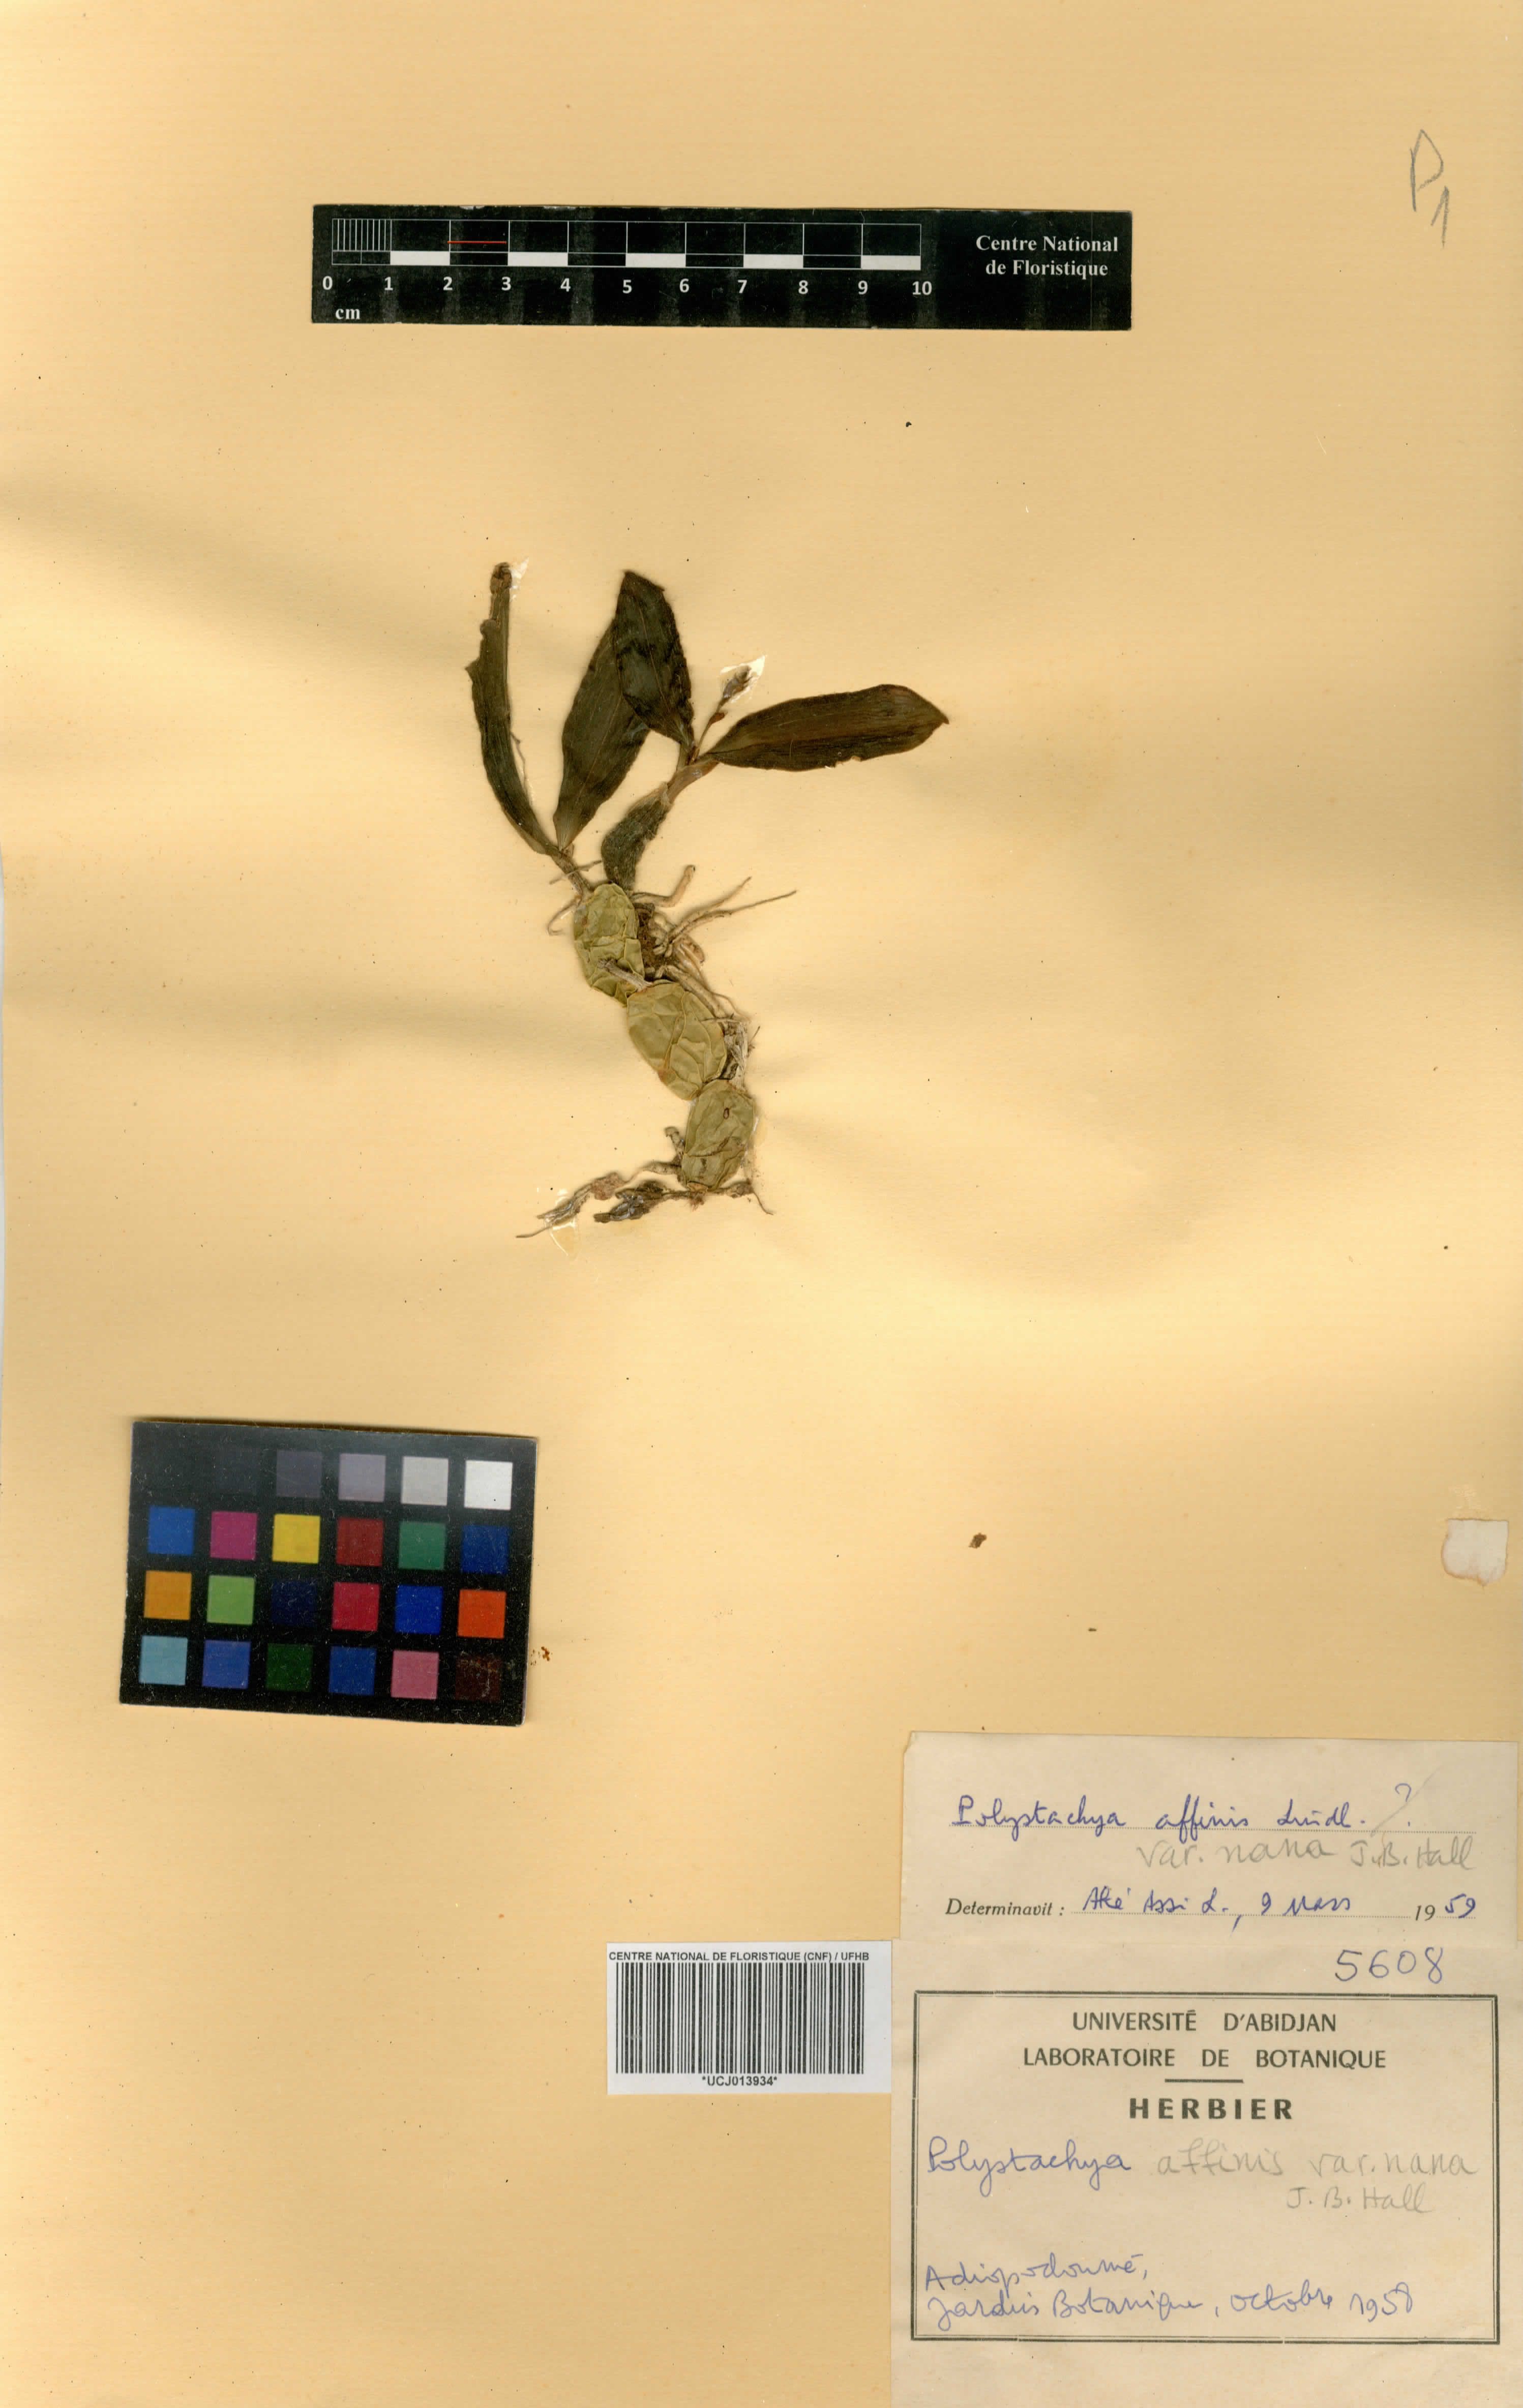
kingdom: Plantae
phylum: Tracheophyta
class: Liliopsida
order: Asparagales
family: Orchidaceae
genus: Polystachya
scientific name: Polystachya bancoensis
